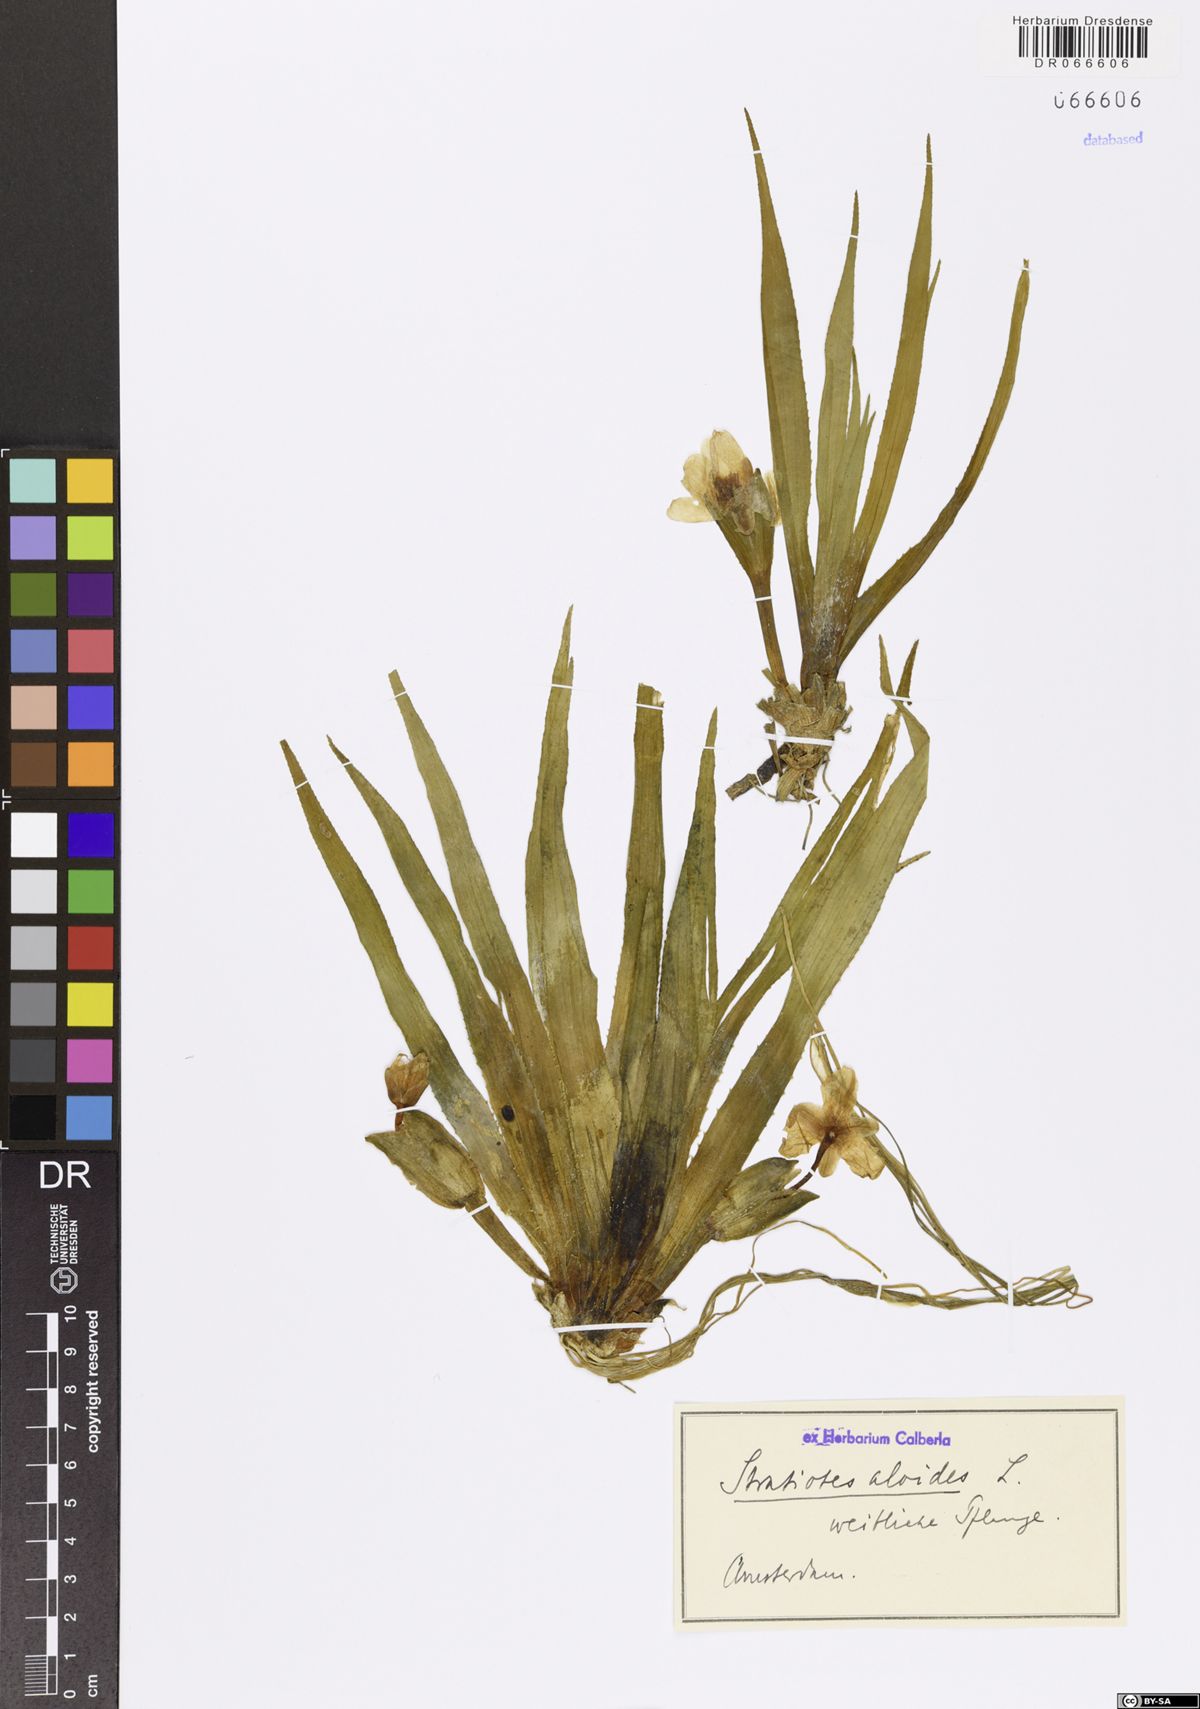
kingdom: Plantae
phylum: Tracheophyta
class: Liliopsida
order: Alismatales
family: Hydrocharitaceae
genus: Stratiotes
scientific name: Stratiotes aloides
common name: Water-soldier
